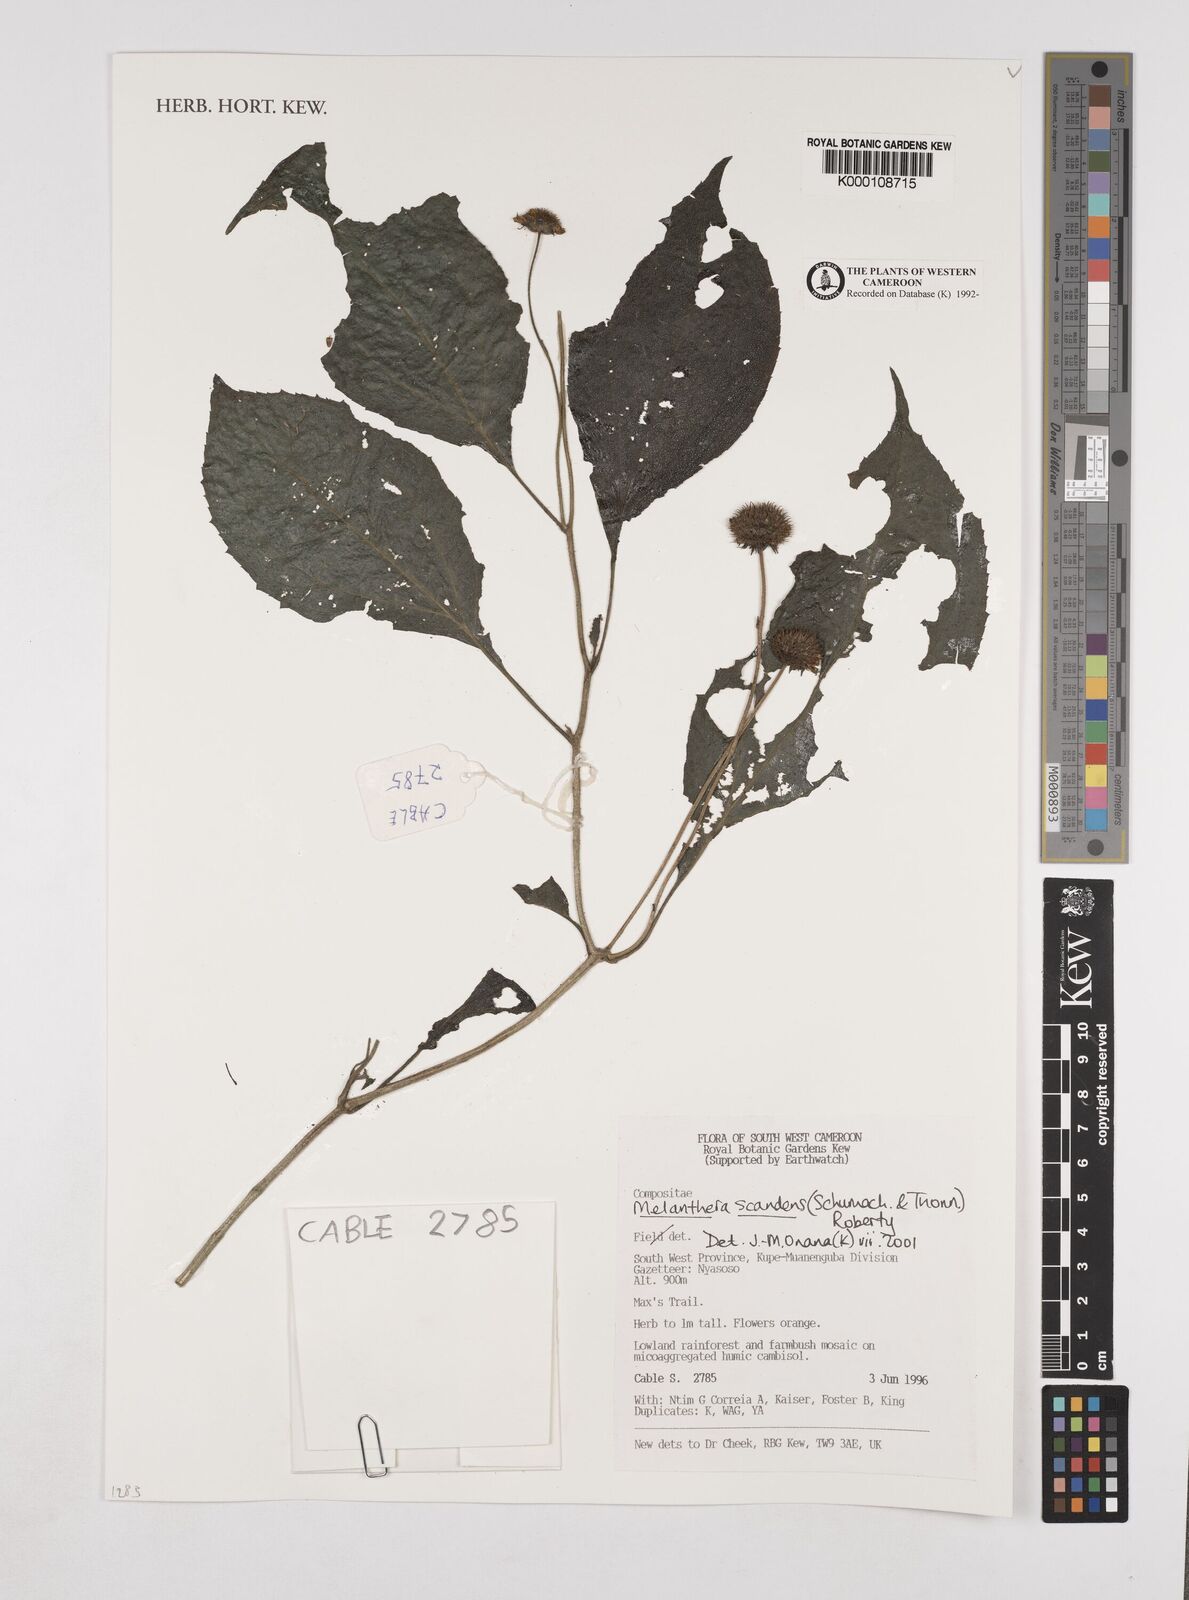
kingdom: Plantae
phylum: Tracheophyta
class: Magnoliopsida
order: Asterales
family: Asteraceae
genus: Melanthera
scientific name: Melanthera
